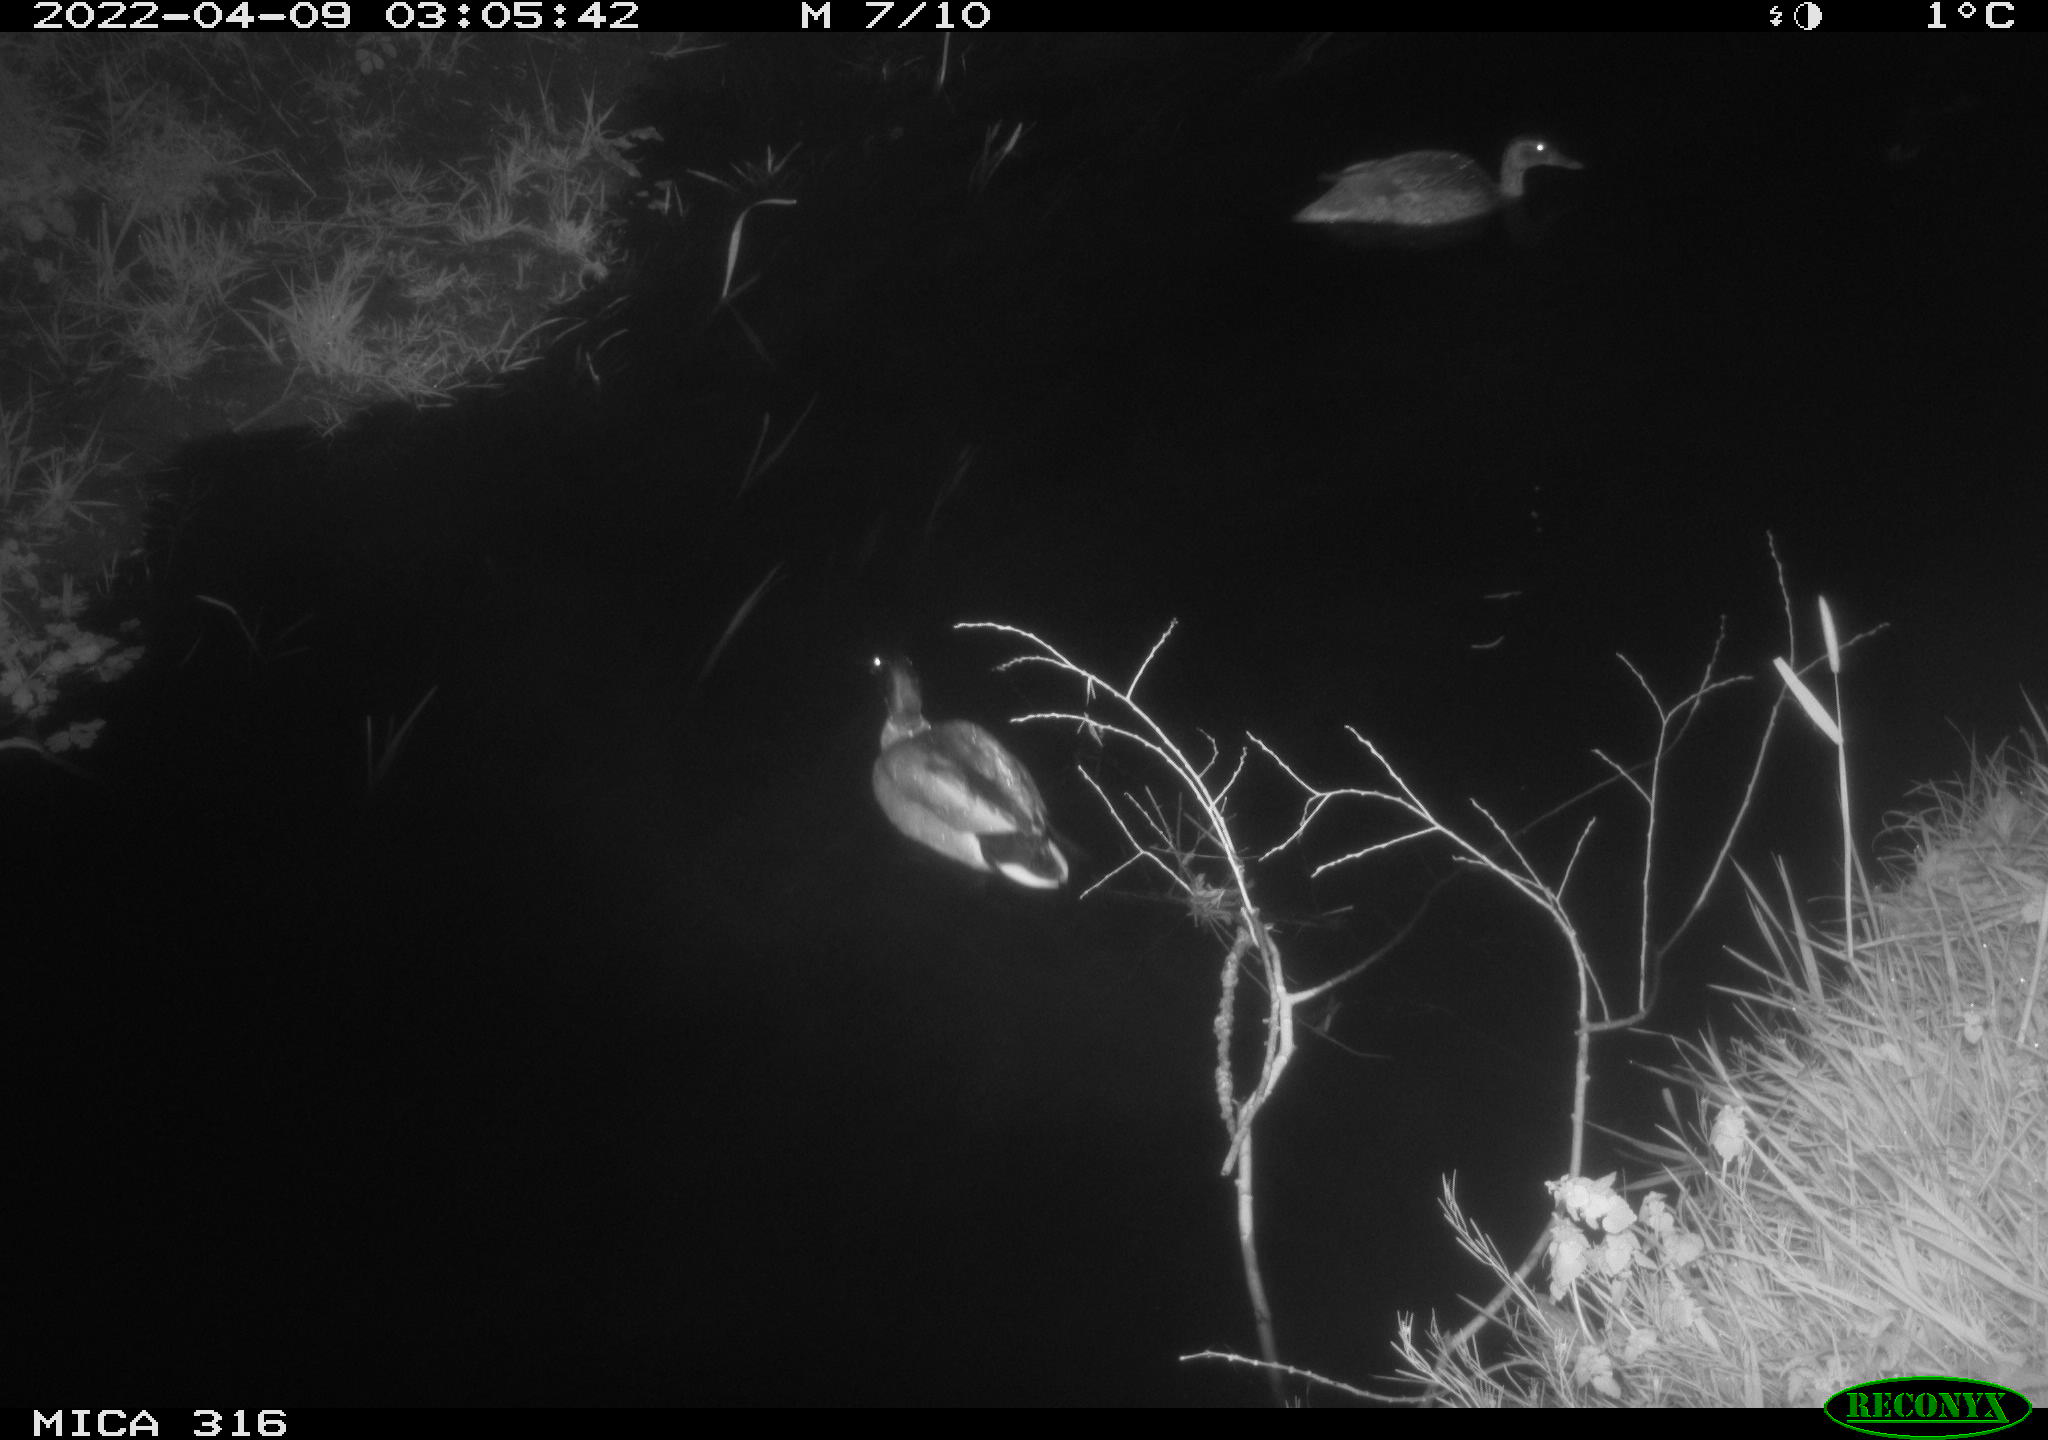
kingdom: Animalia
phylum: Chordata
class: Aves
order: Anseriformes
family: Anatidae
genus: Anas
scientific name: Anas platyrhynchos
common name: Mallard
